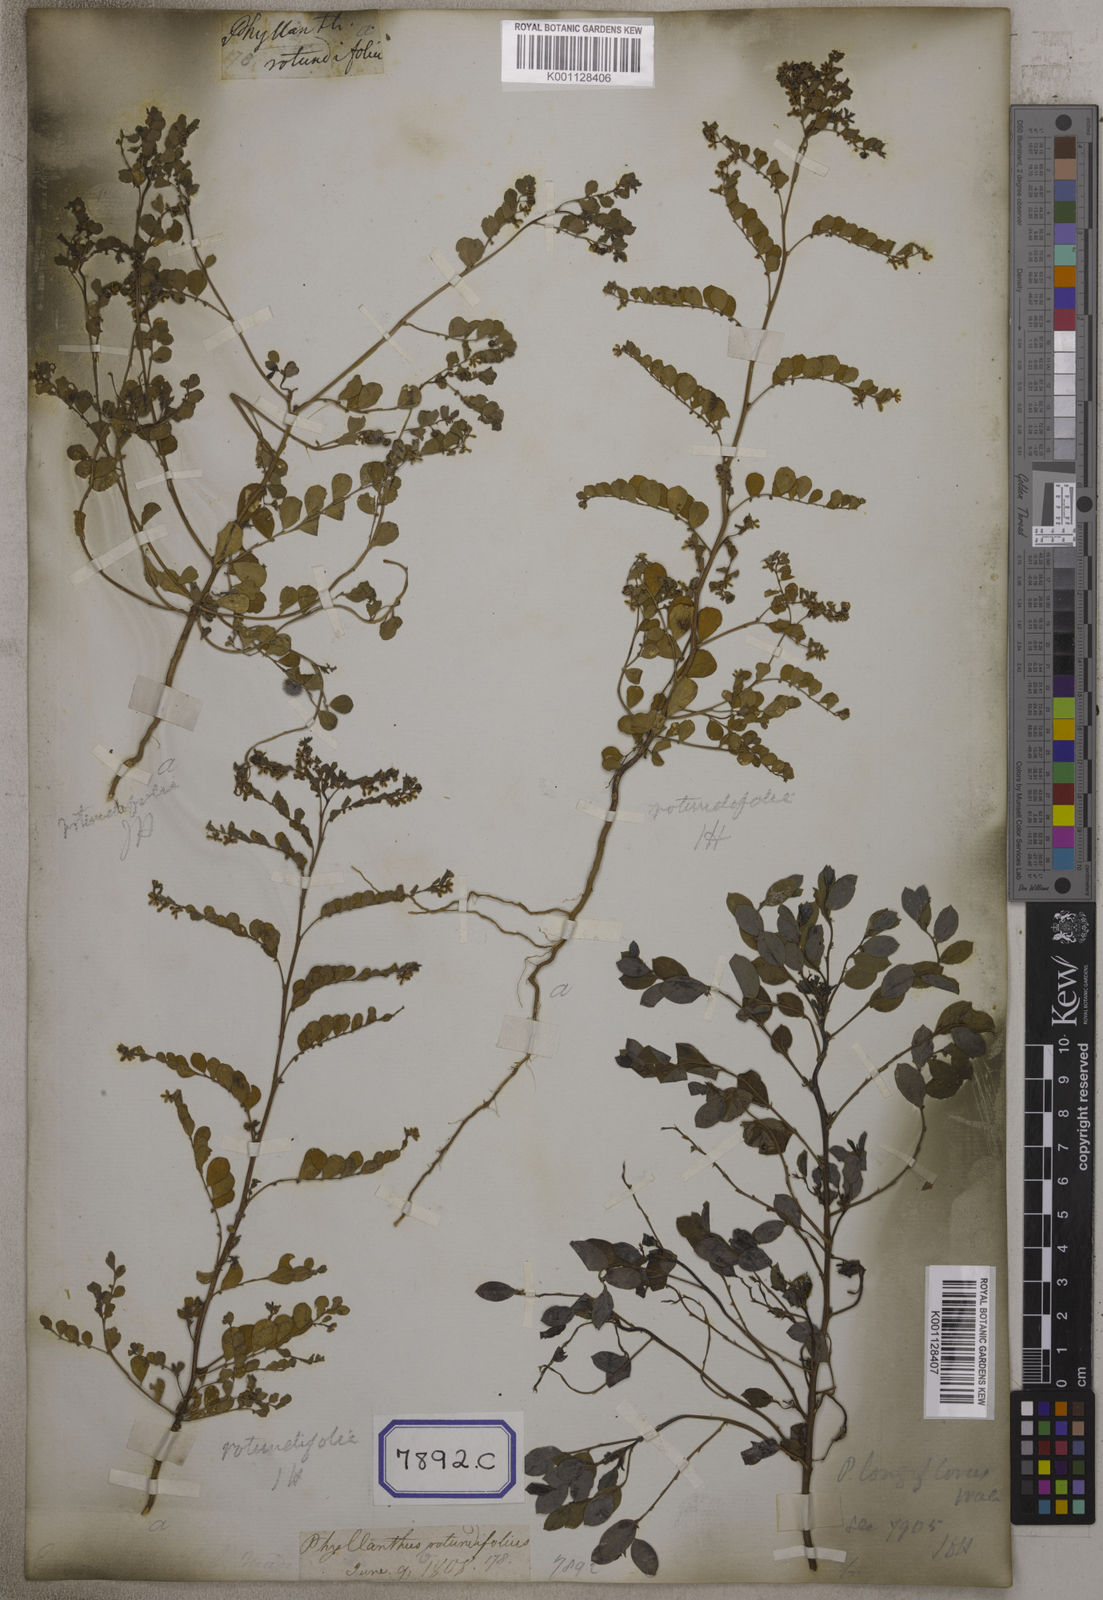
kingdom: Plantae
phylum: Tracheophyta
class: Magnoliopsida
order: Malpighiales
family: Euphorbiaceae
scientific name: Euphorbiaceae
